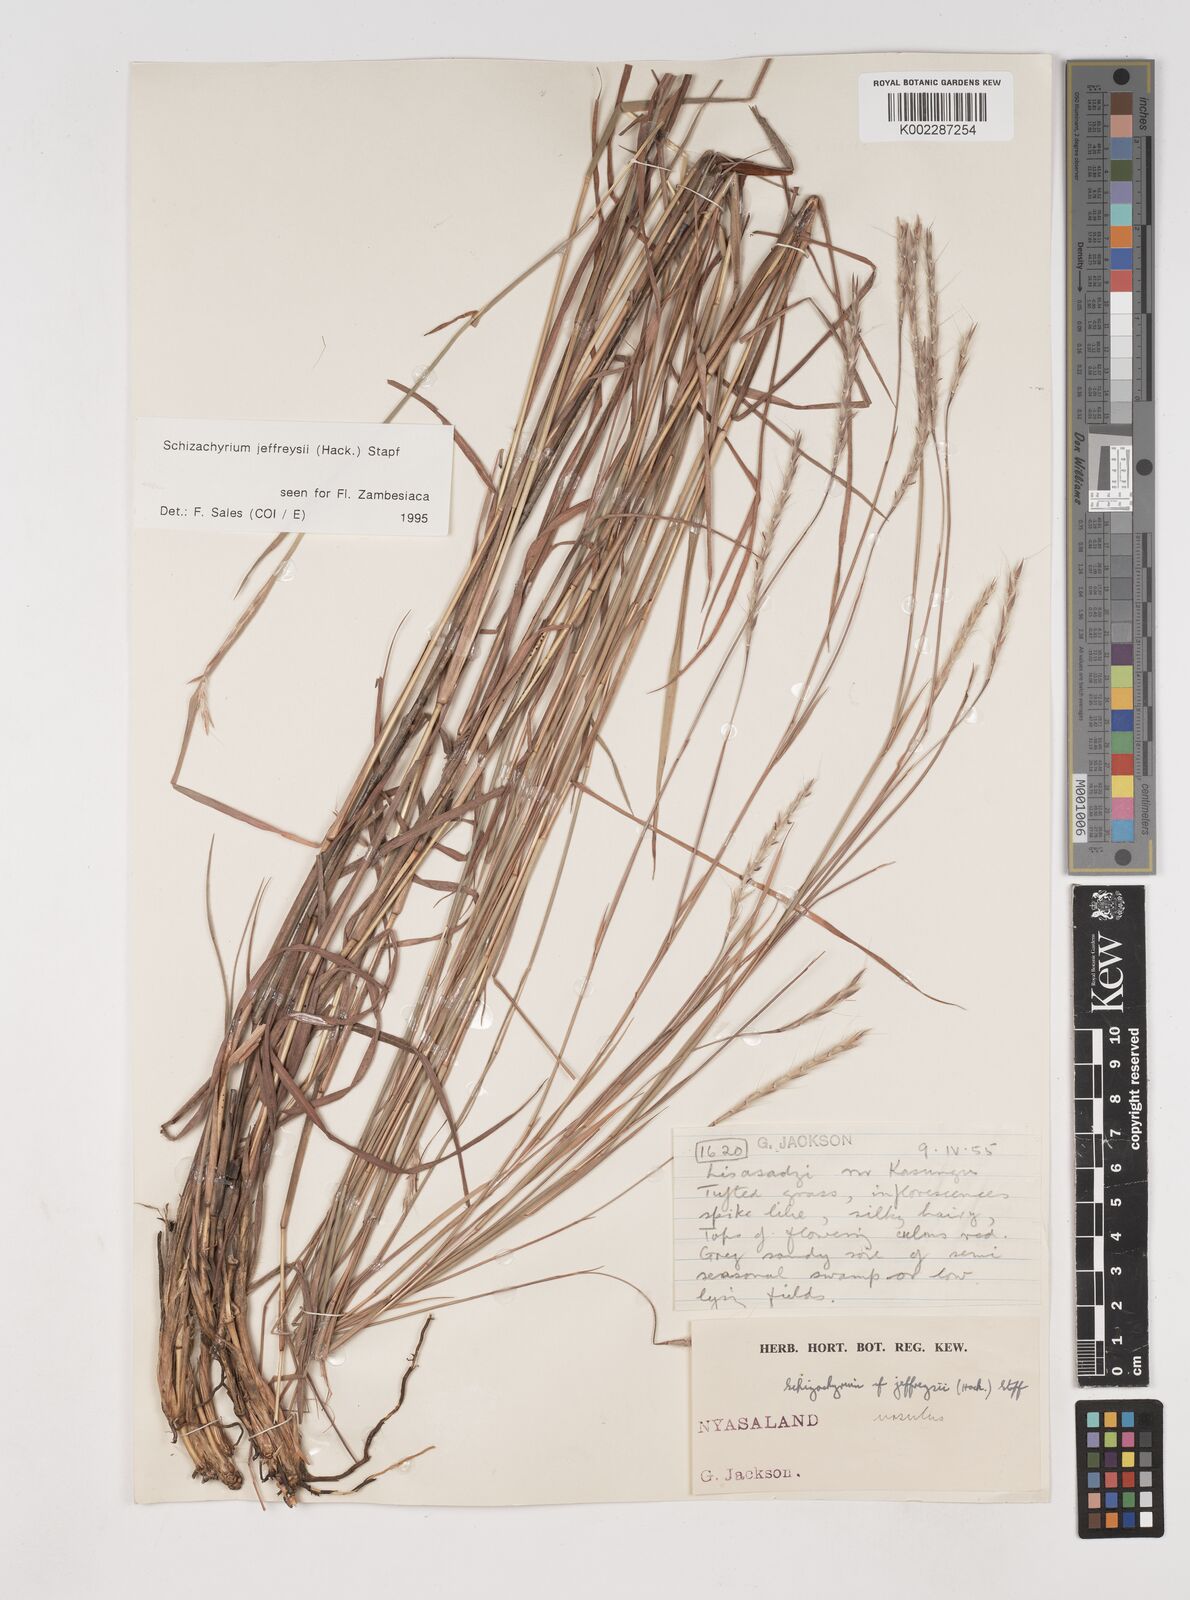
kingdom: Plantae
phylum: Tracheophyta
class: Liliopsida
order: Poales
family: Poaceae
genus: Schizachyrium
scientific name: Schizachyrium jeffreysii
